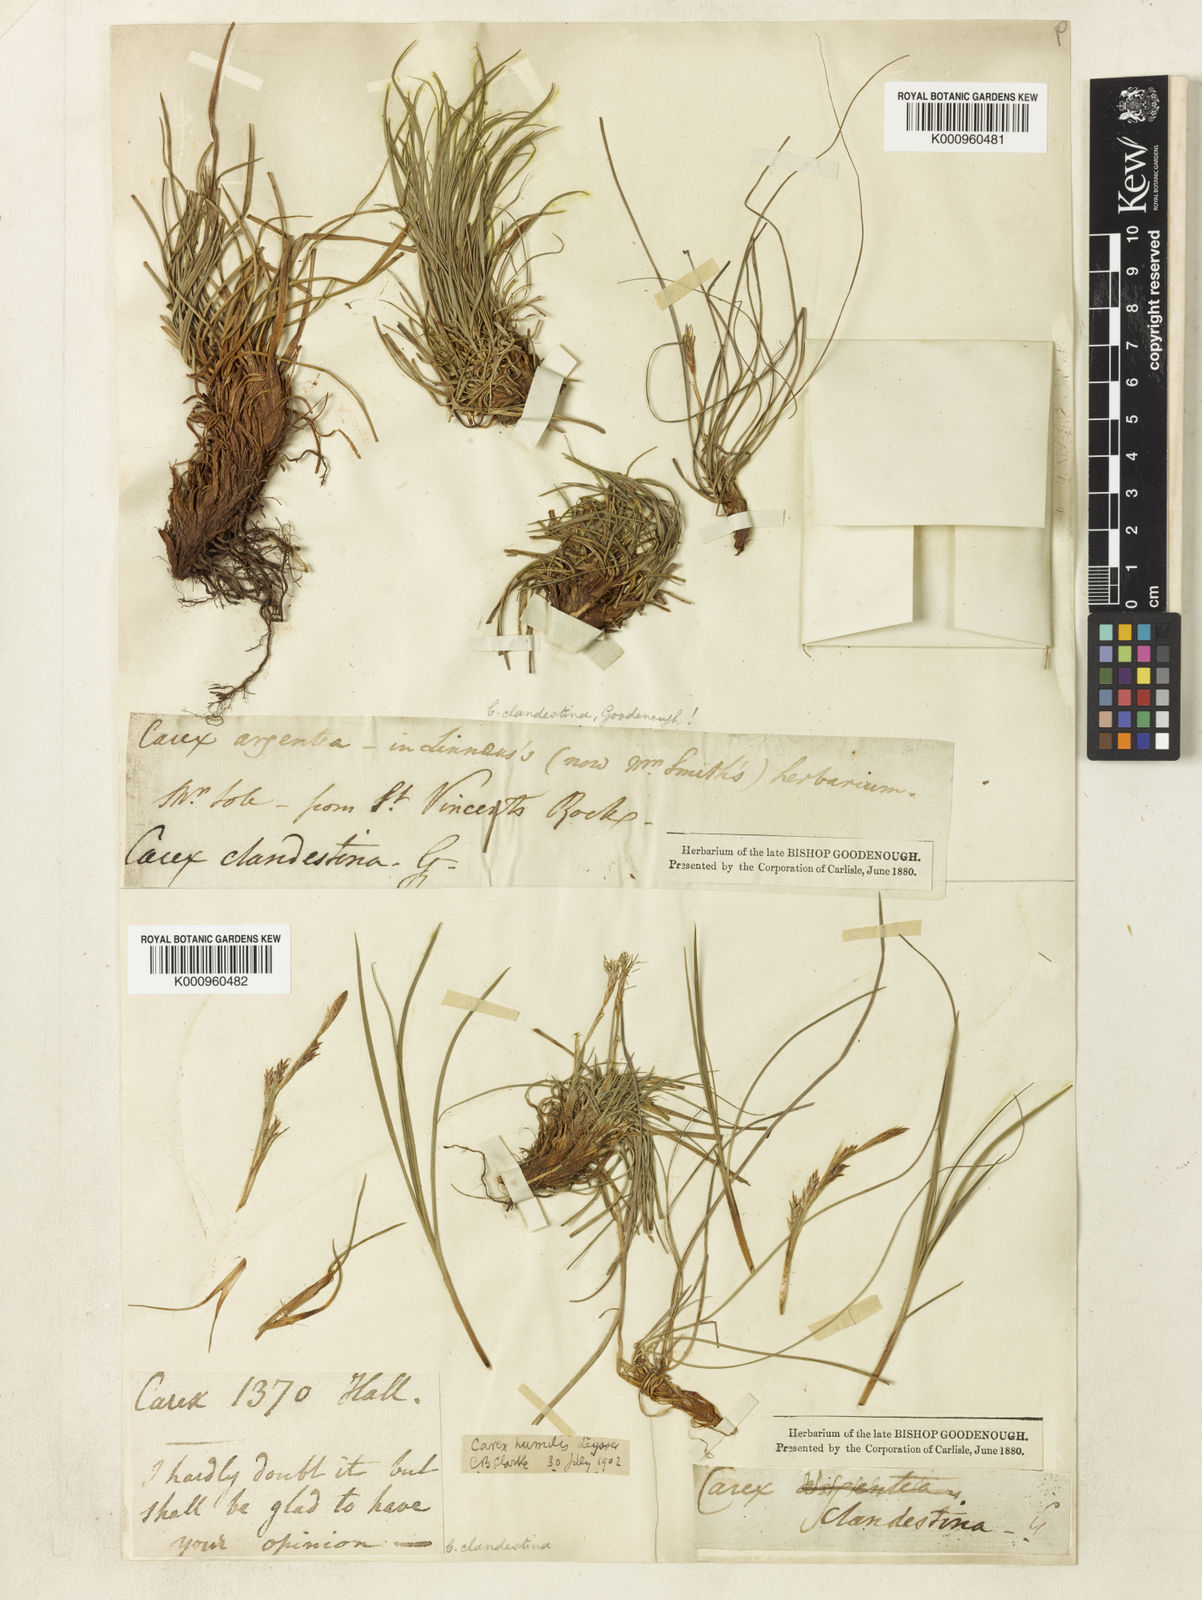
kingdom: Plantae
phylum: Tracheophyta
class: Liliopsida
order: Poales
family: Cyperaceae
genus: Carex
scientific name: Carex humilis
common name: Dwarf sedge
